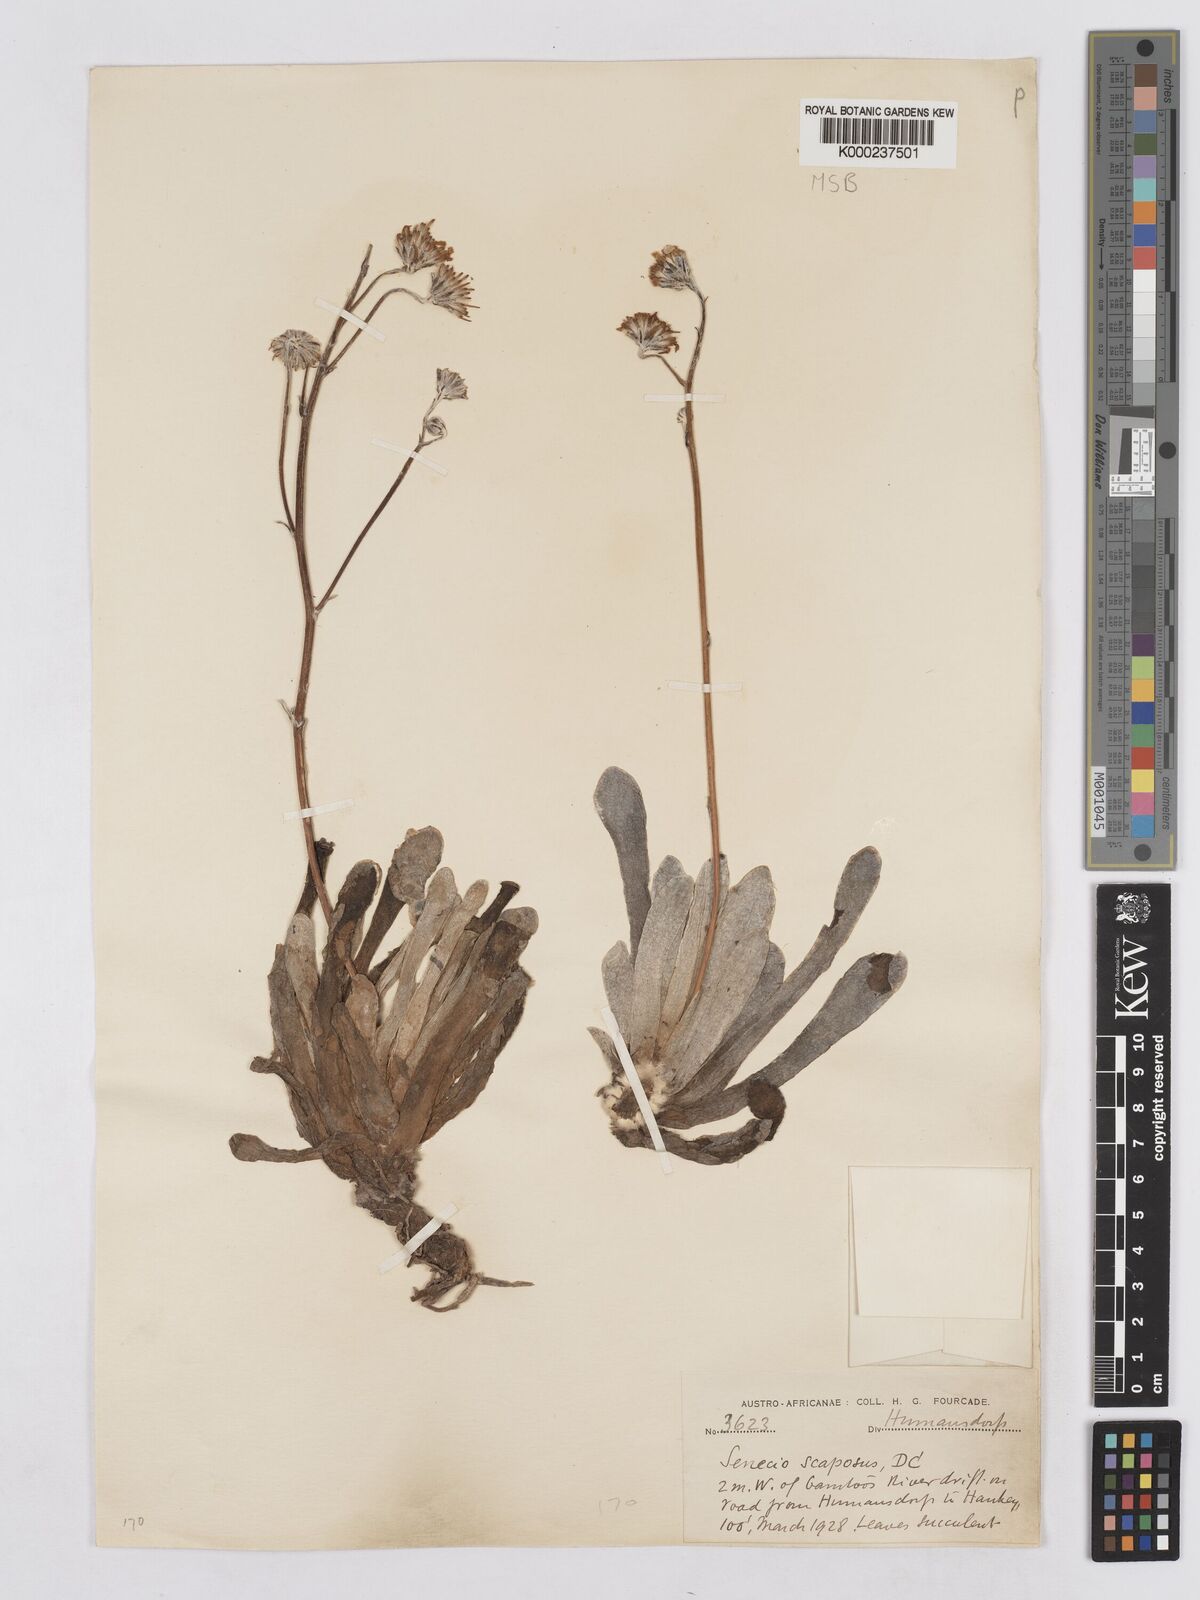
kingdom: Plantae
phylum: Tracheophyta
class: Magnoliopsida
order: Asterales
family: Asteraceae
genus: Caputia
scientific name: Caputia scaposa
